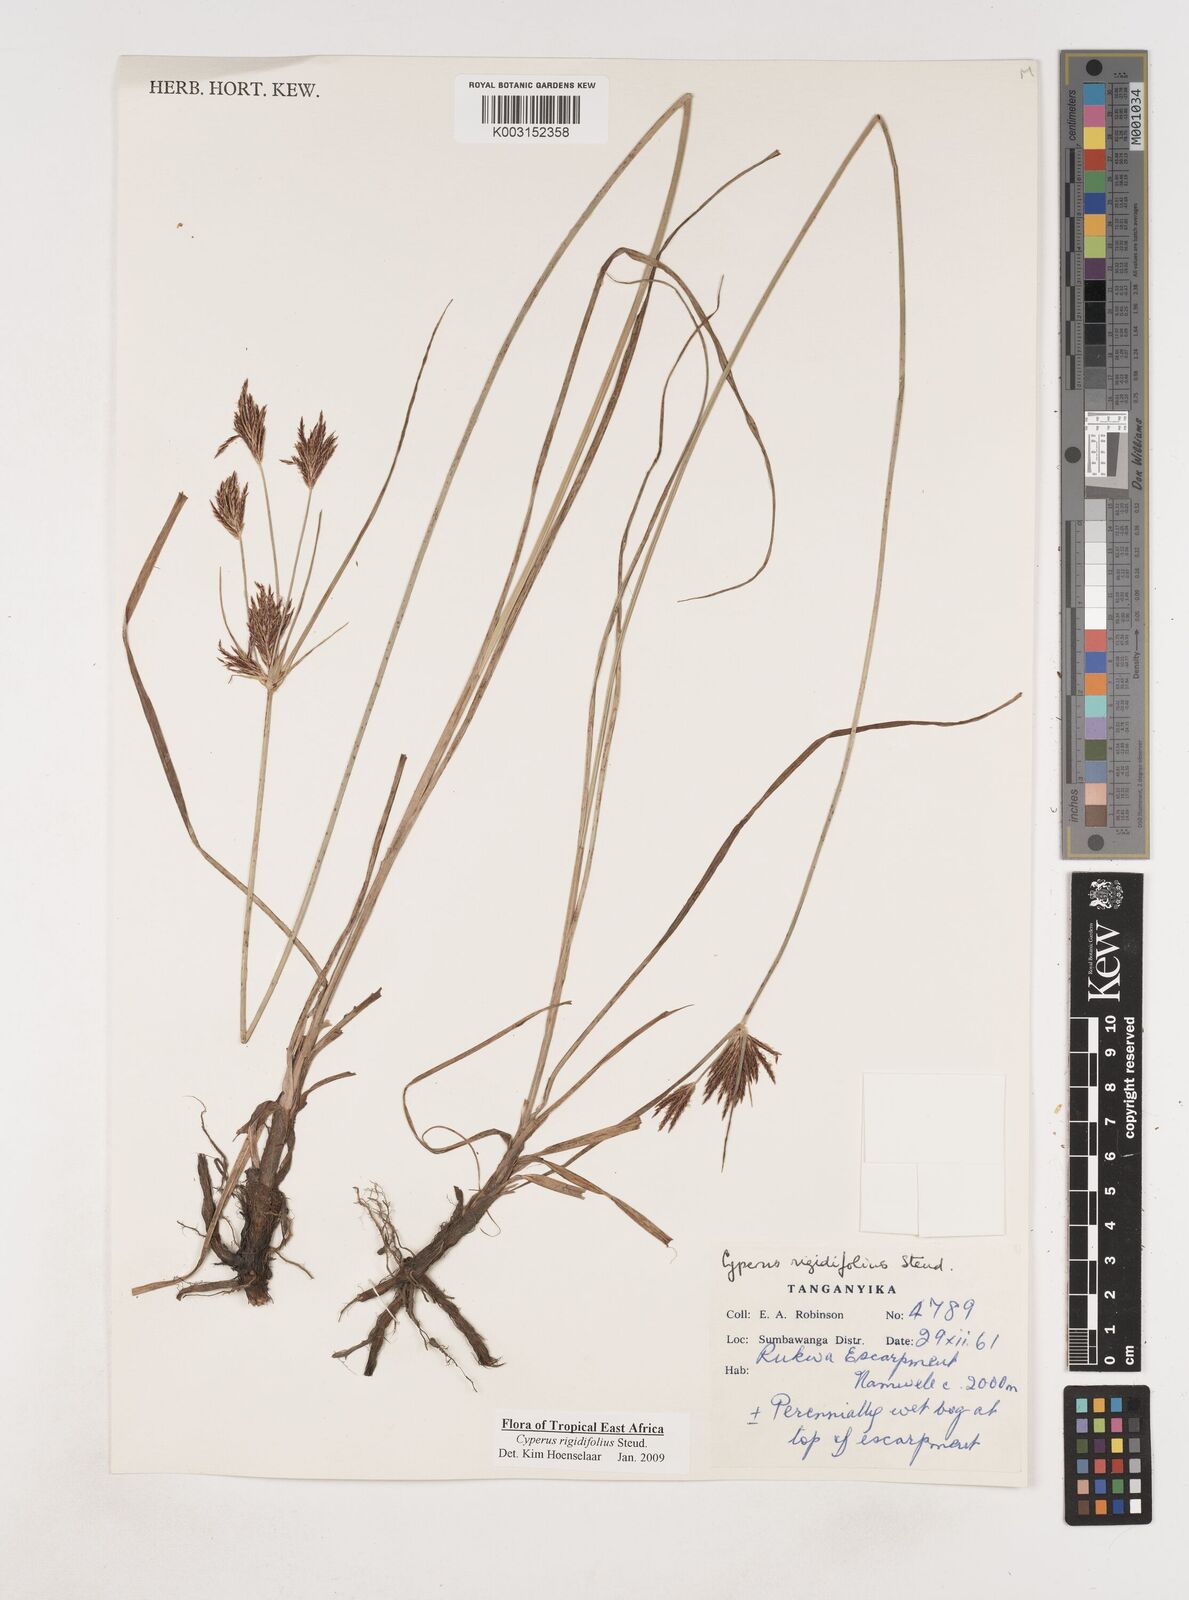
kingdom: Plantae
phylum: Tracheophyta
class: Liliopsida
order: Poales
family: Cyperaceae
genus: Cyperus
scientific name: Cyperus rigidifolius
